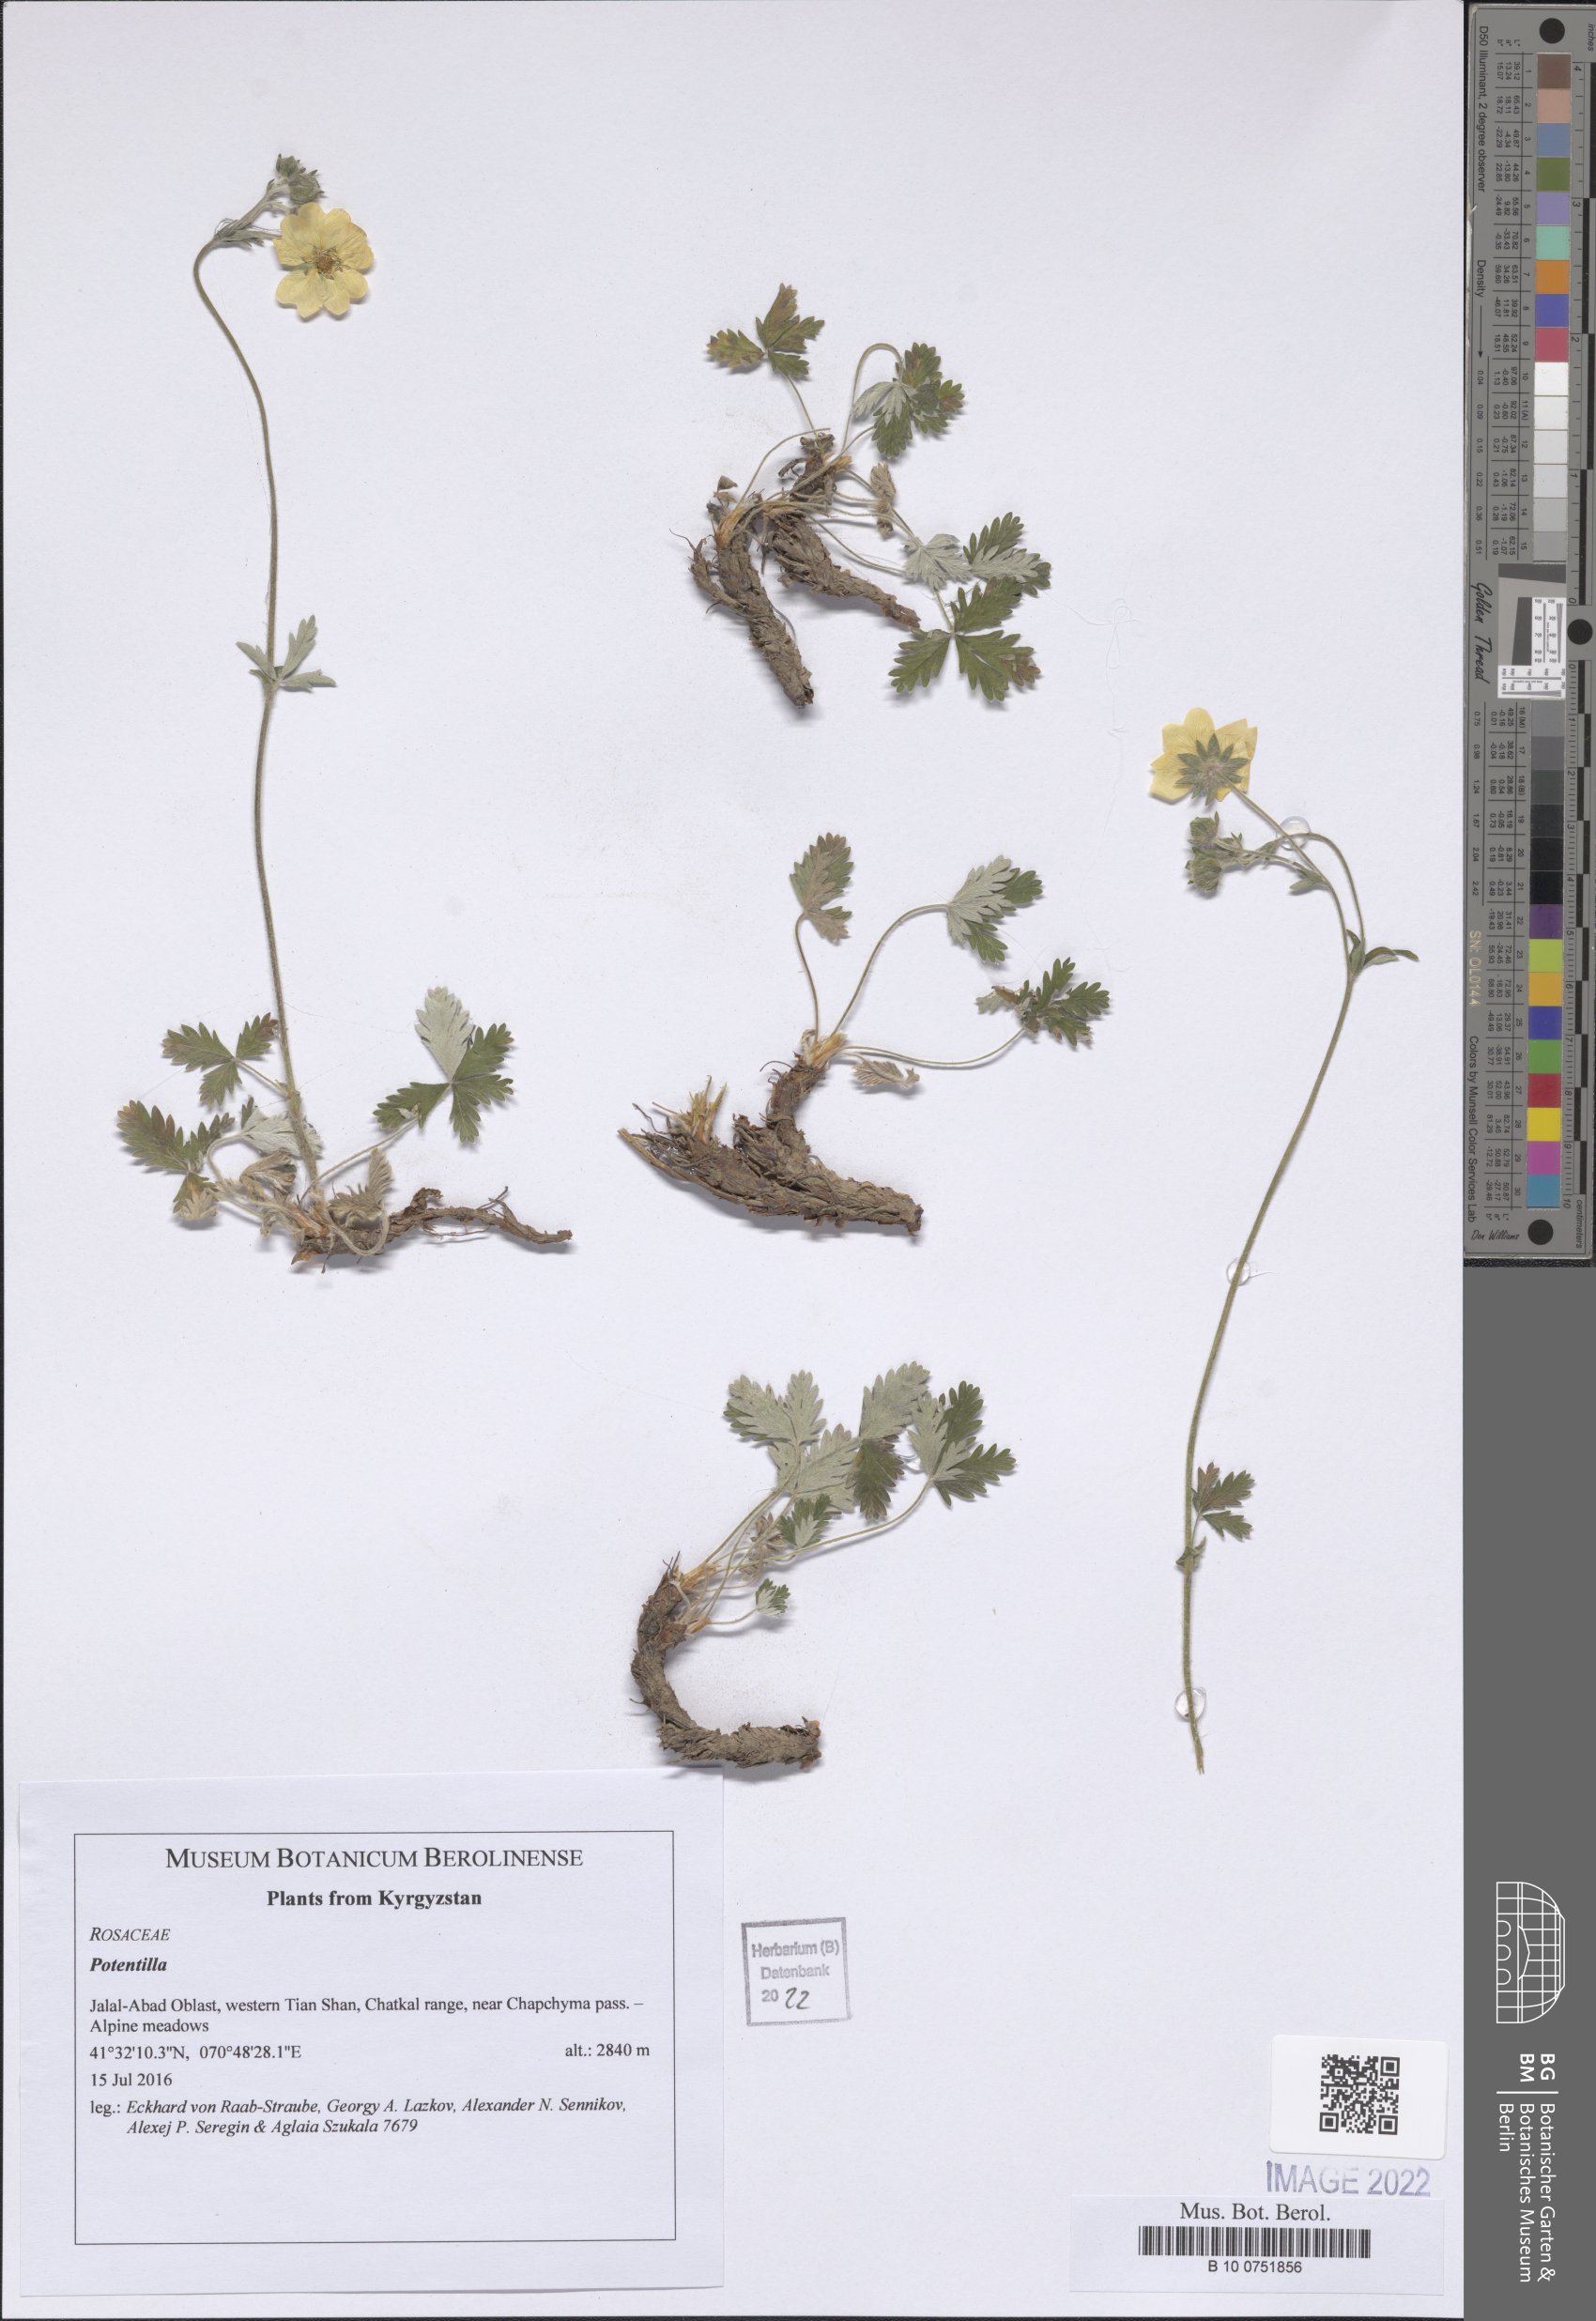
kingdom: Plantae
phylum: Tracheophyta
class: Magnoliopsida
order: Rosales
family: Rosaceae
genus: Potentilla
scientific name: Potentilla
